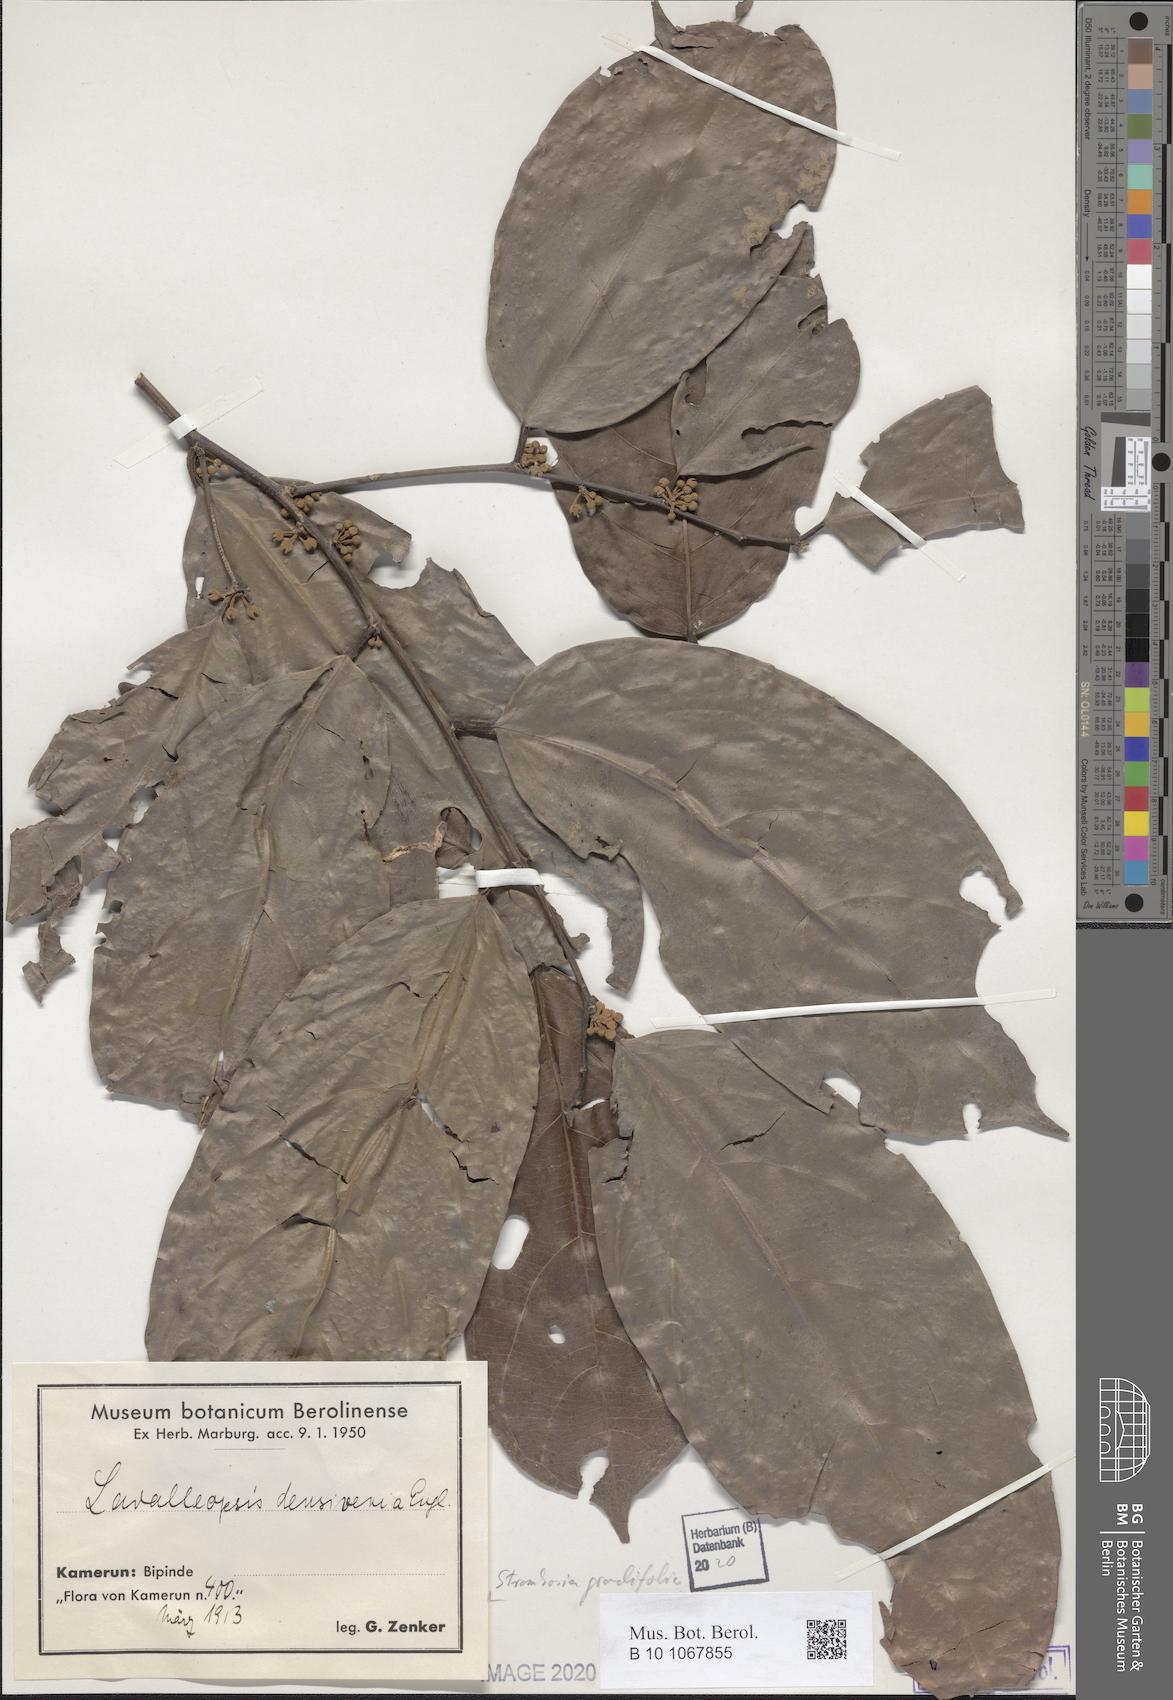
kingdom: Plantae
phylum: Tracheophyta
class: Magnoliopsida
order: Santalales
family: Strombosiaceae
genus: Strombosia
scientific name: Strombosia grandifolia
